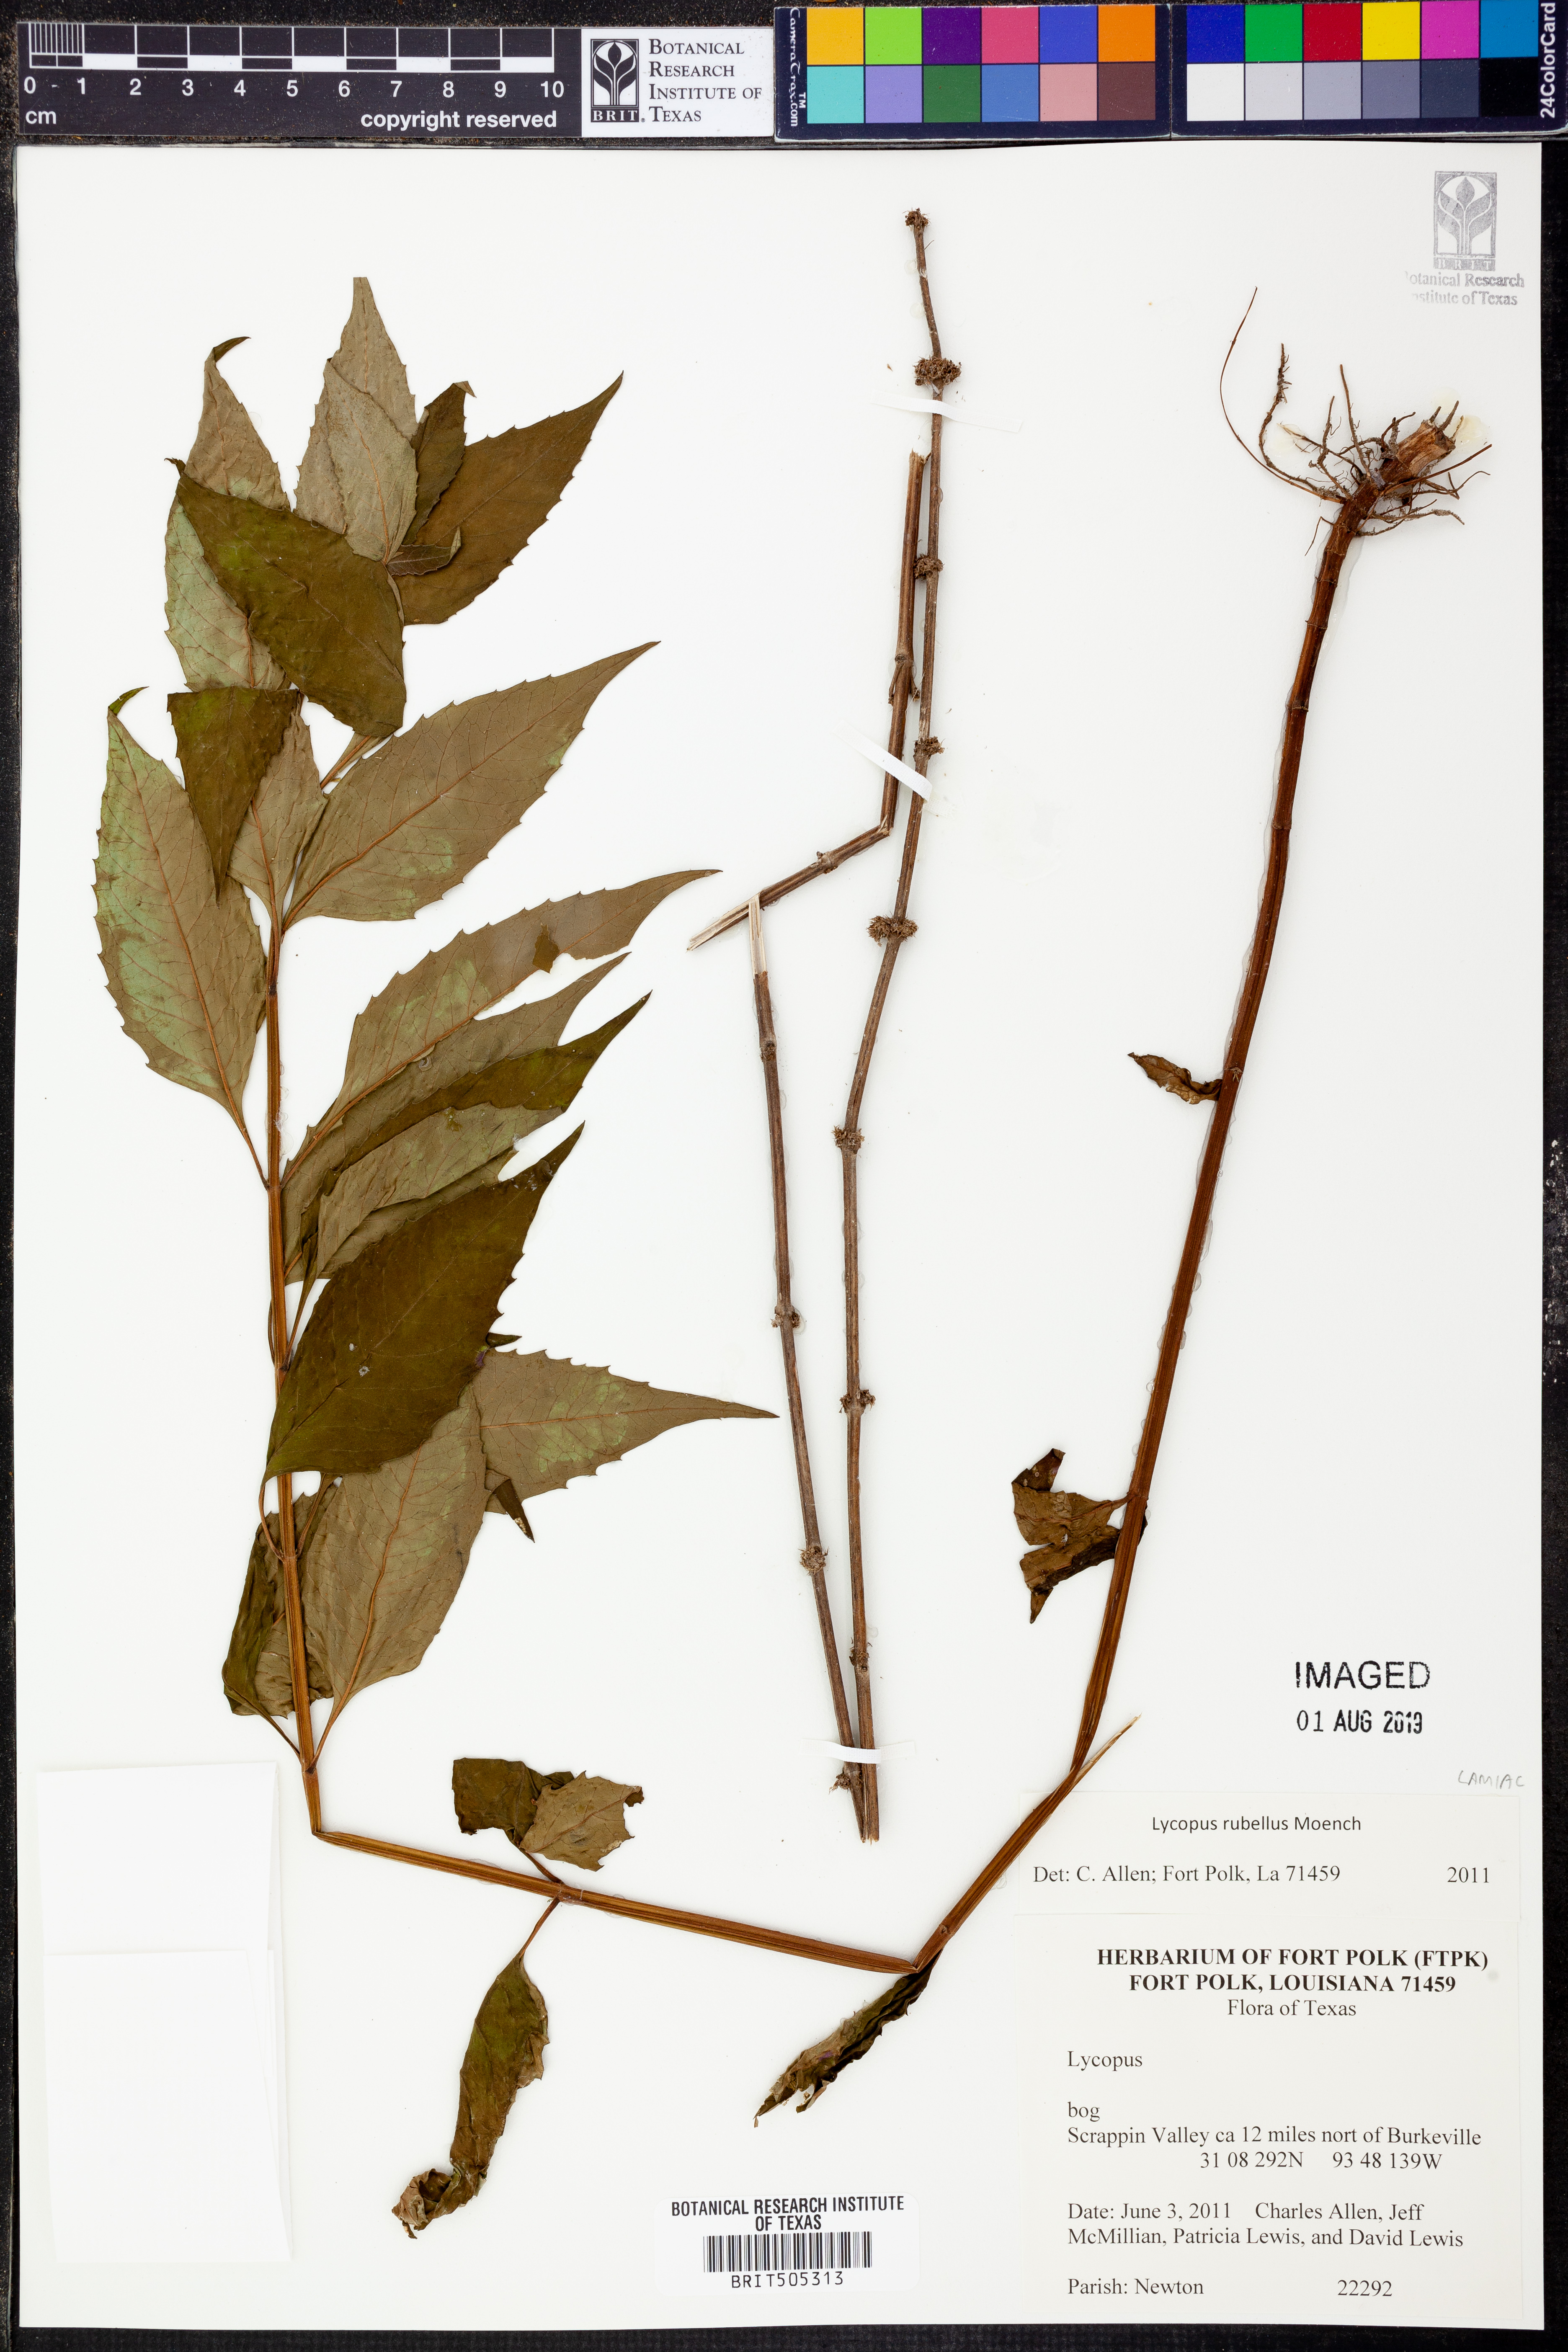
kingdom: Plantae
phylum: Tracheophyta
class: Magnoliopsida
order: Lamiales
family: Lamiaceae
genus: Lycopus
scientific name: Lycopus rubellus
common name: Stalked bugleweed
